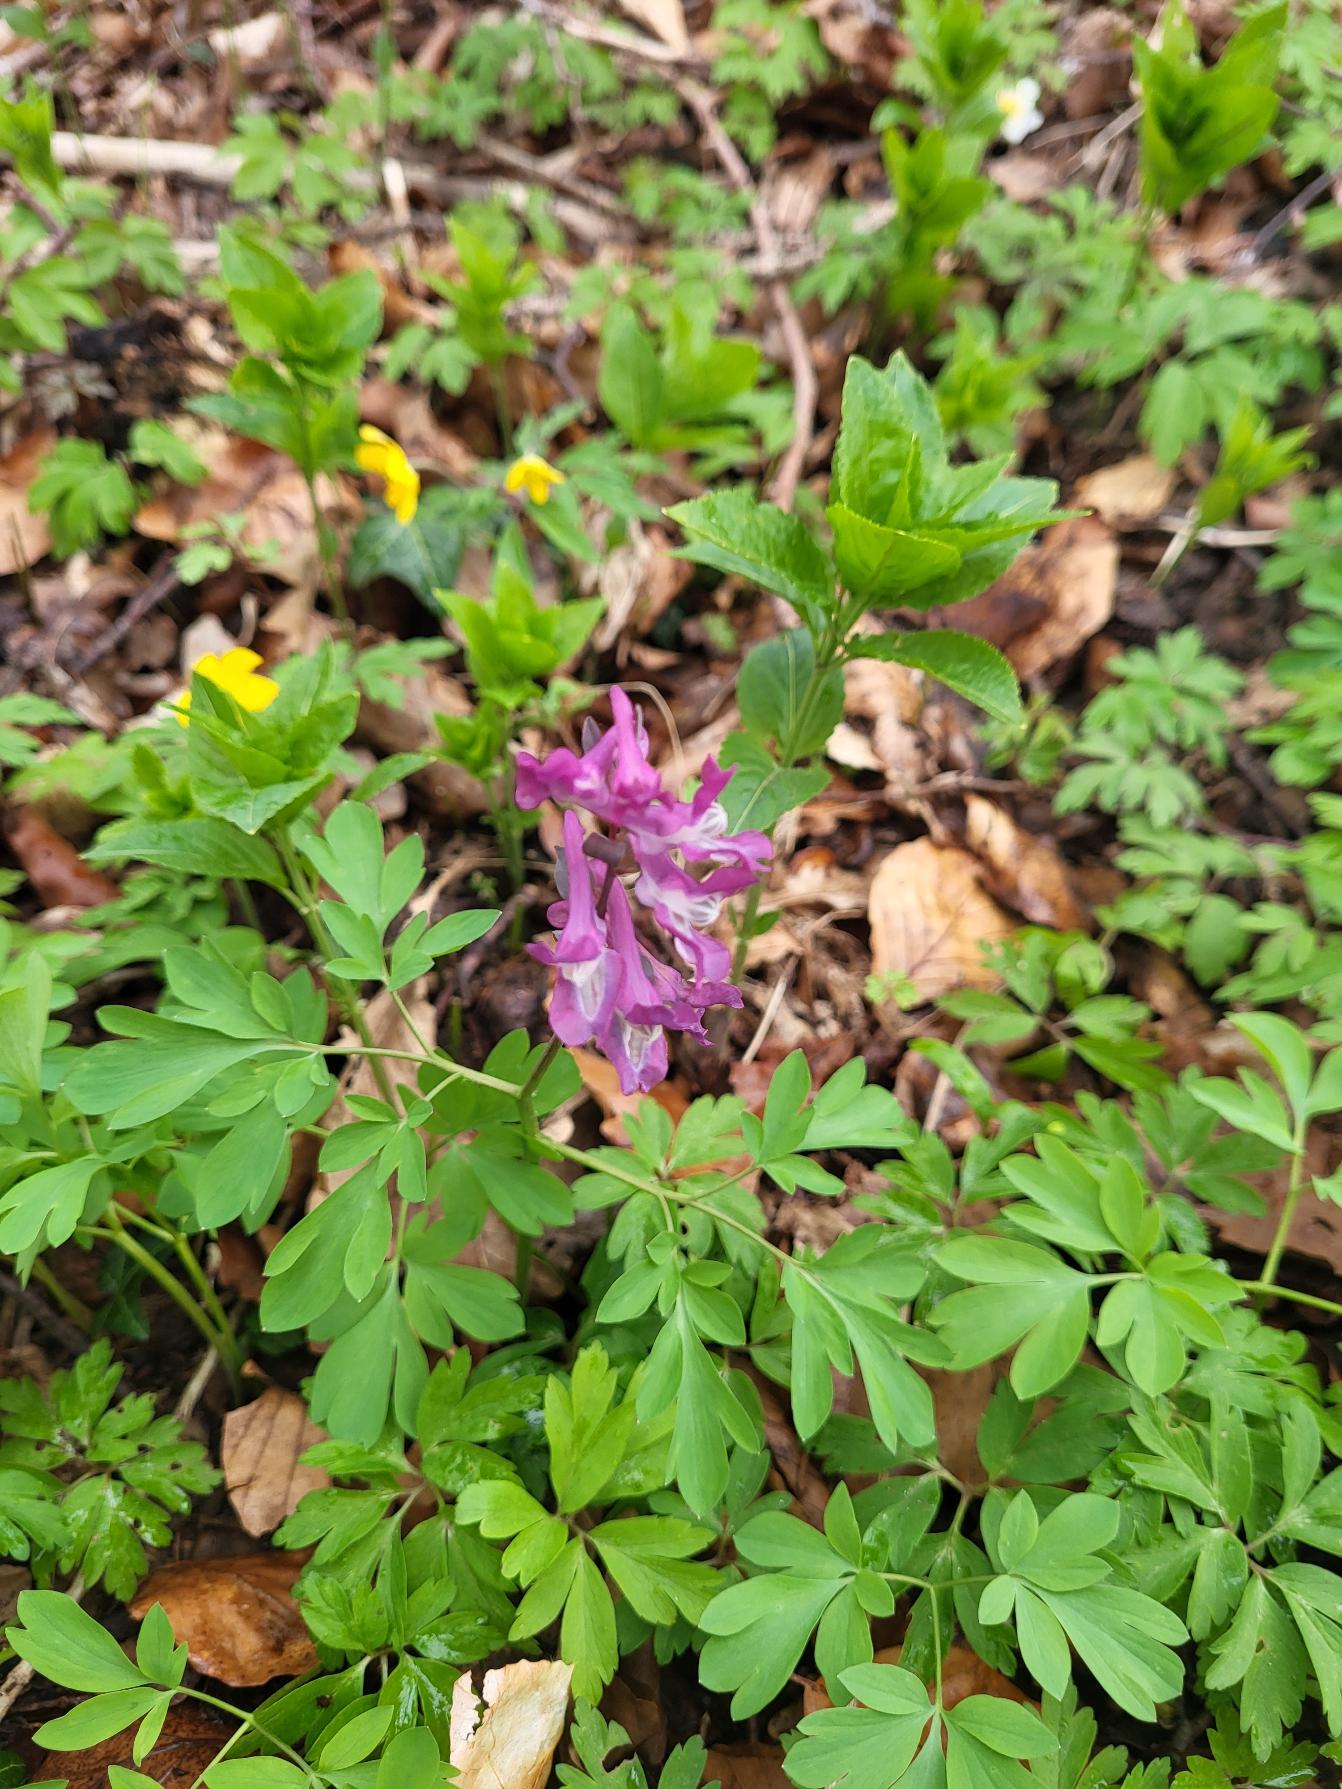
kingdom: Plantae
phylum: Tracheophyta
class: Magnoliopsida
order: Ranunculales
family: Papaveraceae
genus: Corydalis
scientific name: Corydalis cava
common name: Hulrodet lærkespore
